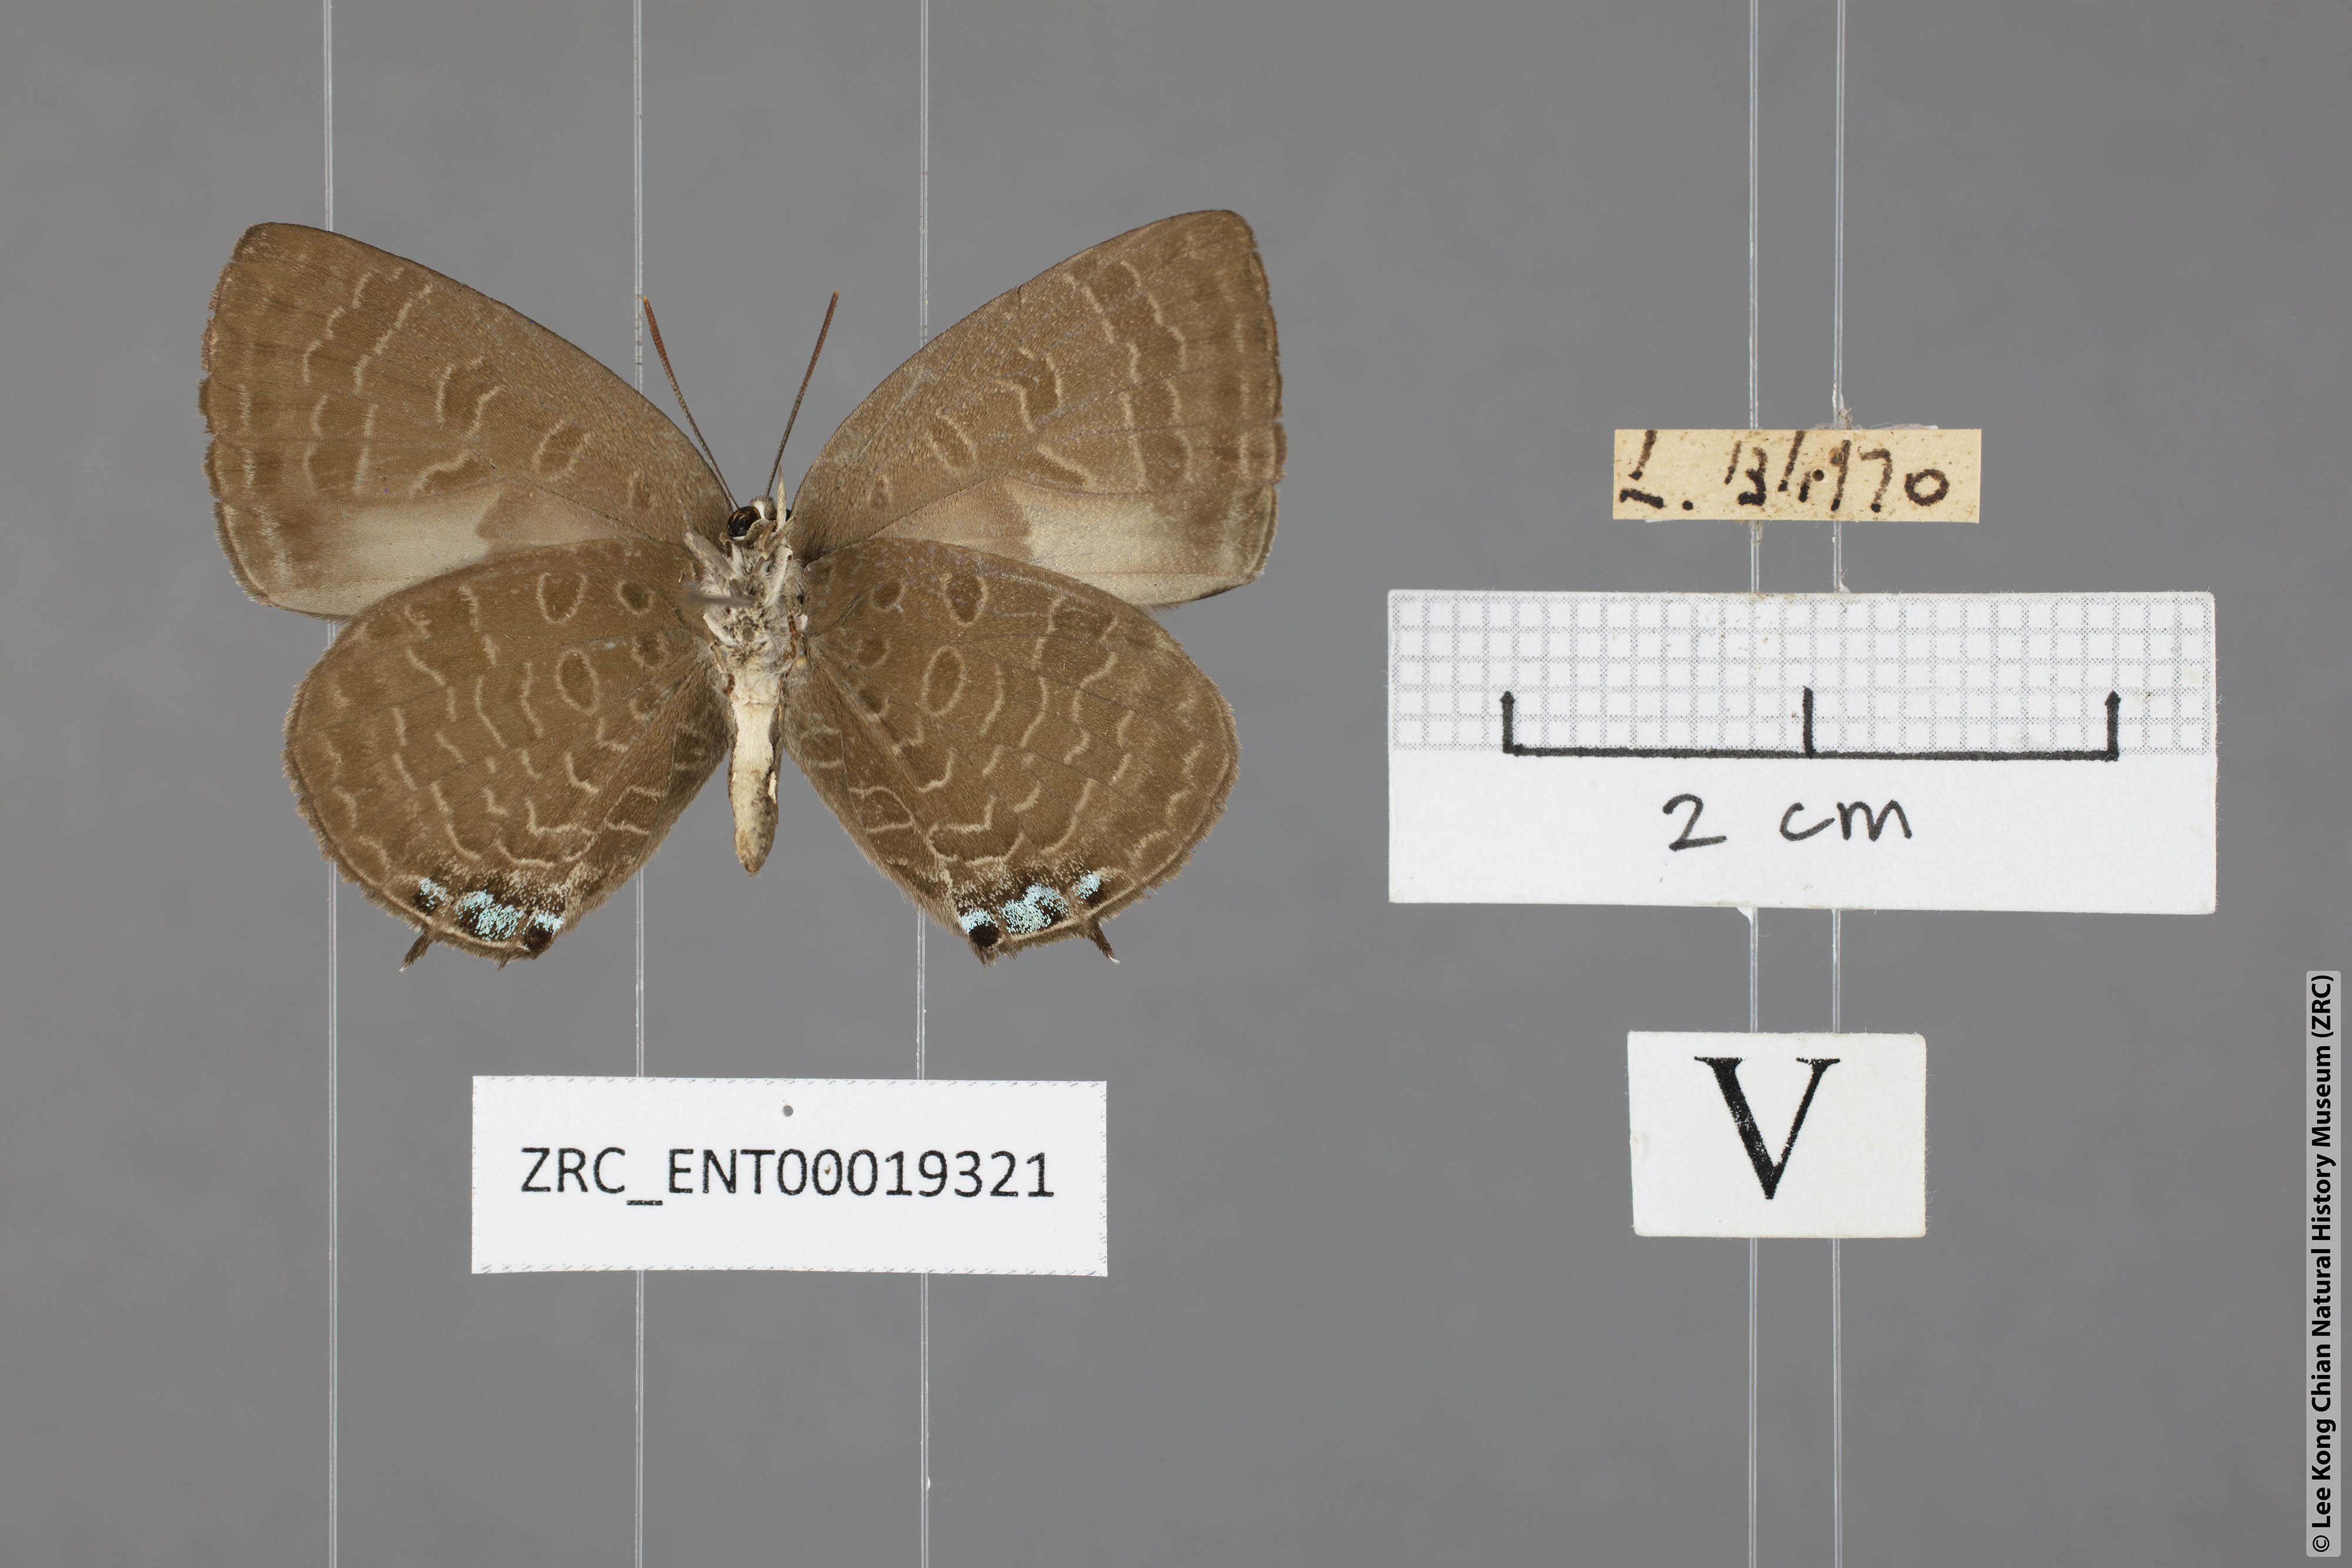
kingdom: Animalia
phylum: Arthropoda
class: Insecta
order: Lepidoptera
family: Lycaenidae
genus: Arhopala
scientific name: Arhopala buddha
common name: Buddha oakblue
